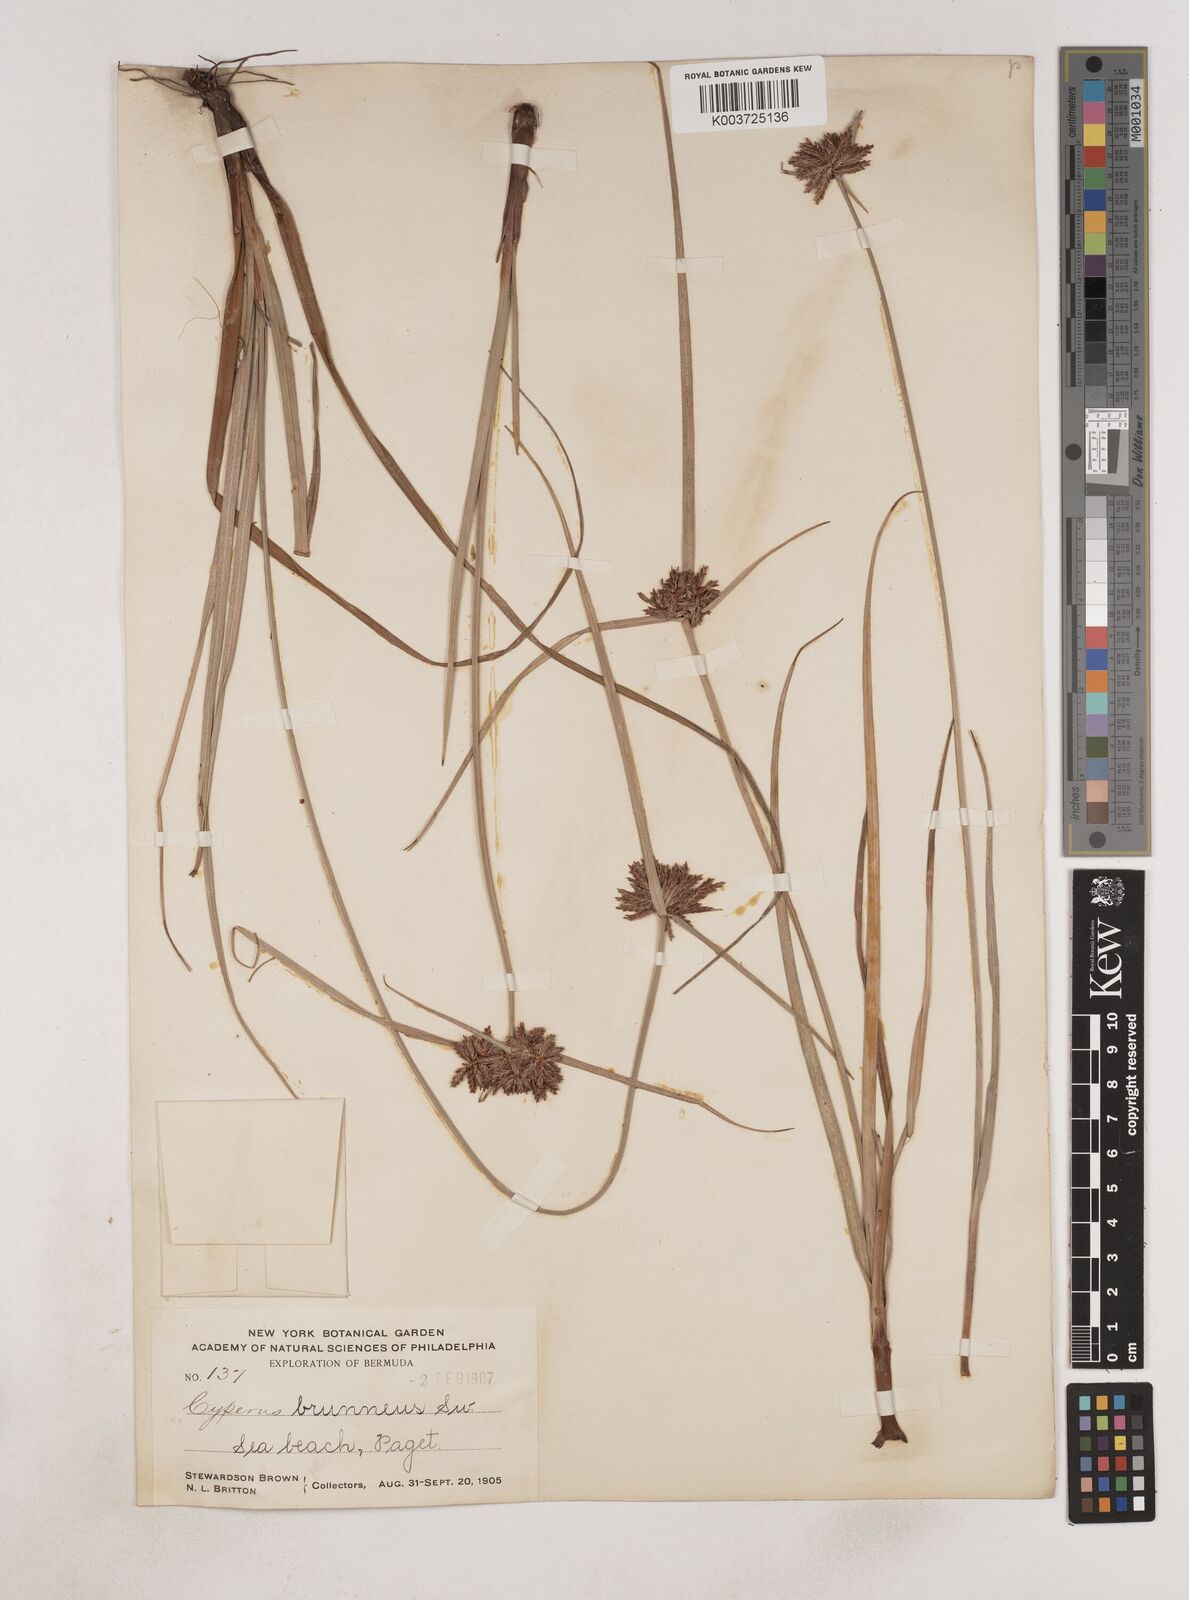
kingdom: Plantae
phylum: Tracheophyta
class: Liliopsida
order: Poales
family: Cyperaceae
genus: Cyperus
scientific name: Cyperus brunneus
